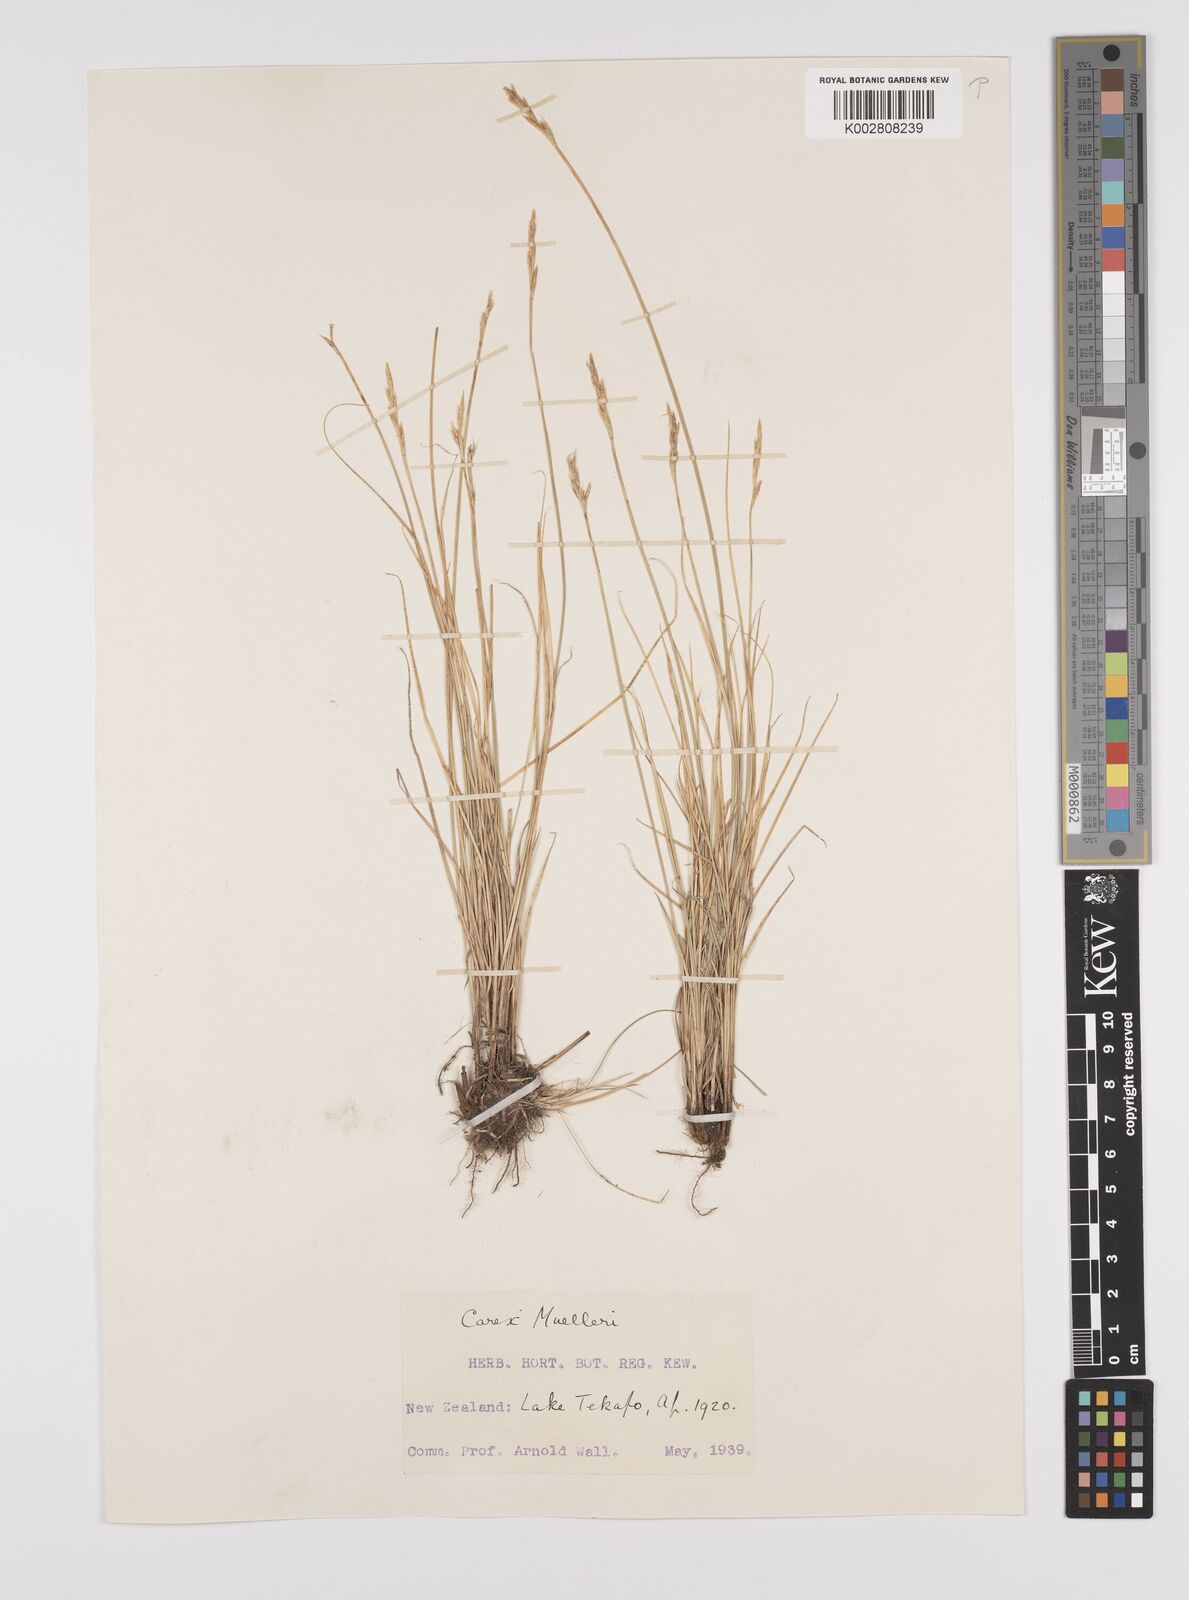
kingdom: Plantae
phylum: Tracheophyta
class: Liliopsida
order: Poales
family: Cyperaceae
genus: Carex
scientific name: Carex muelleri
